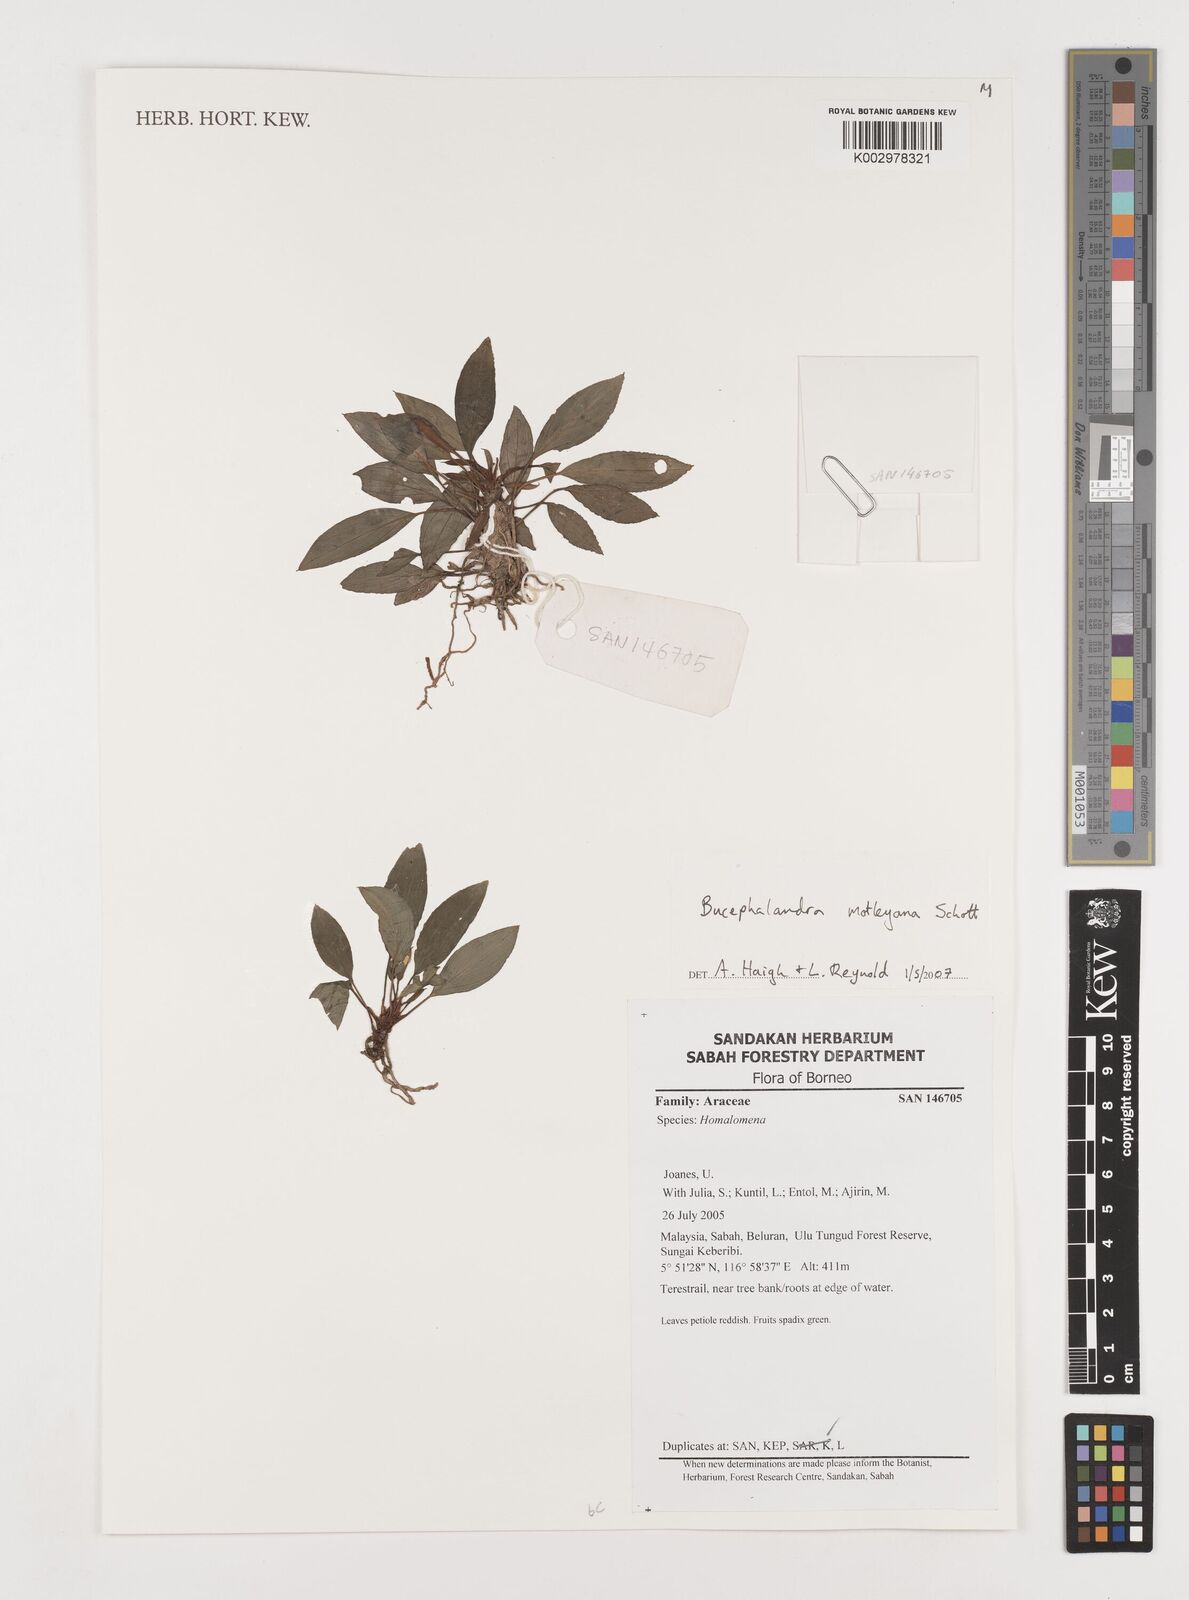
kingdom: Plantae
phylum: Tracheophyta
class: Liliopsida
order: Alismatales
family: Araceae
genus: Bucephalandra
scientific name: Bucephalandra motleyana
